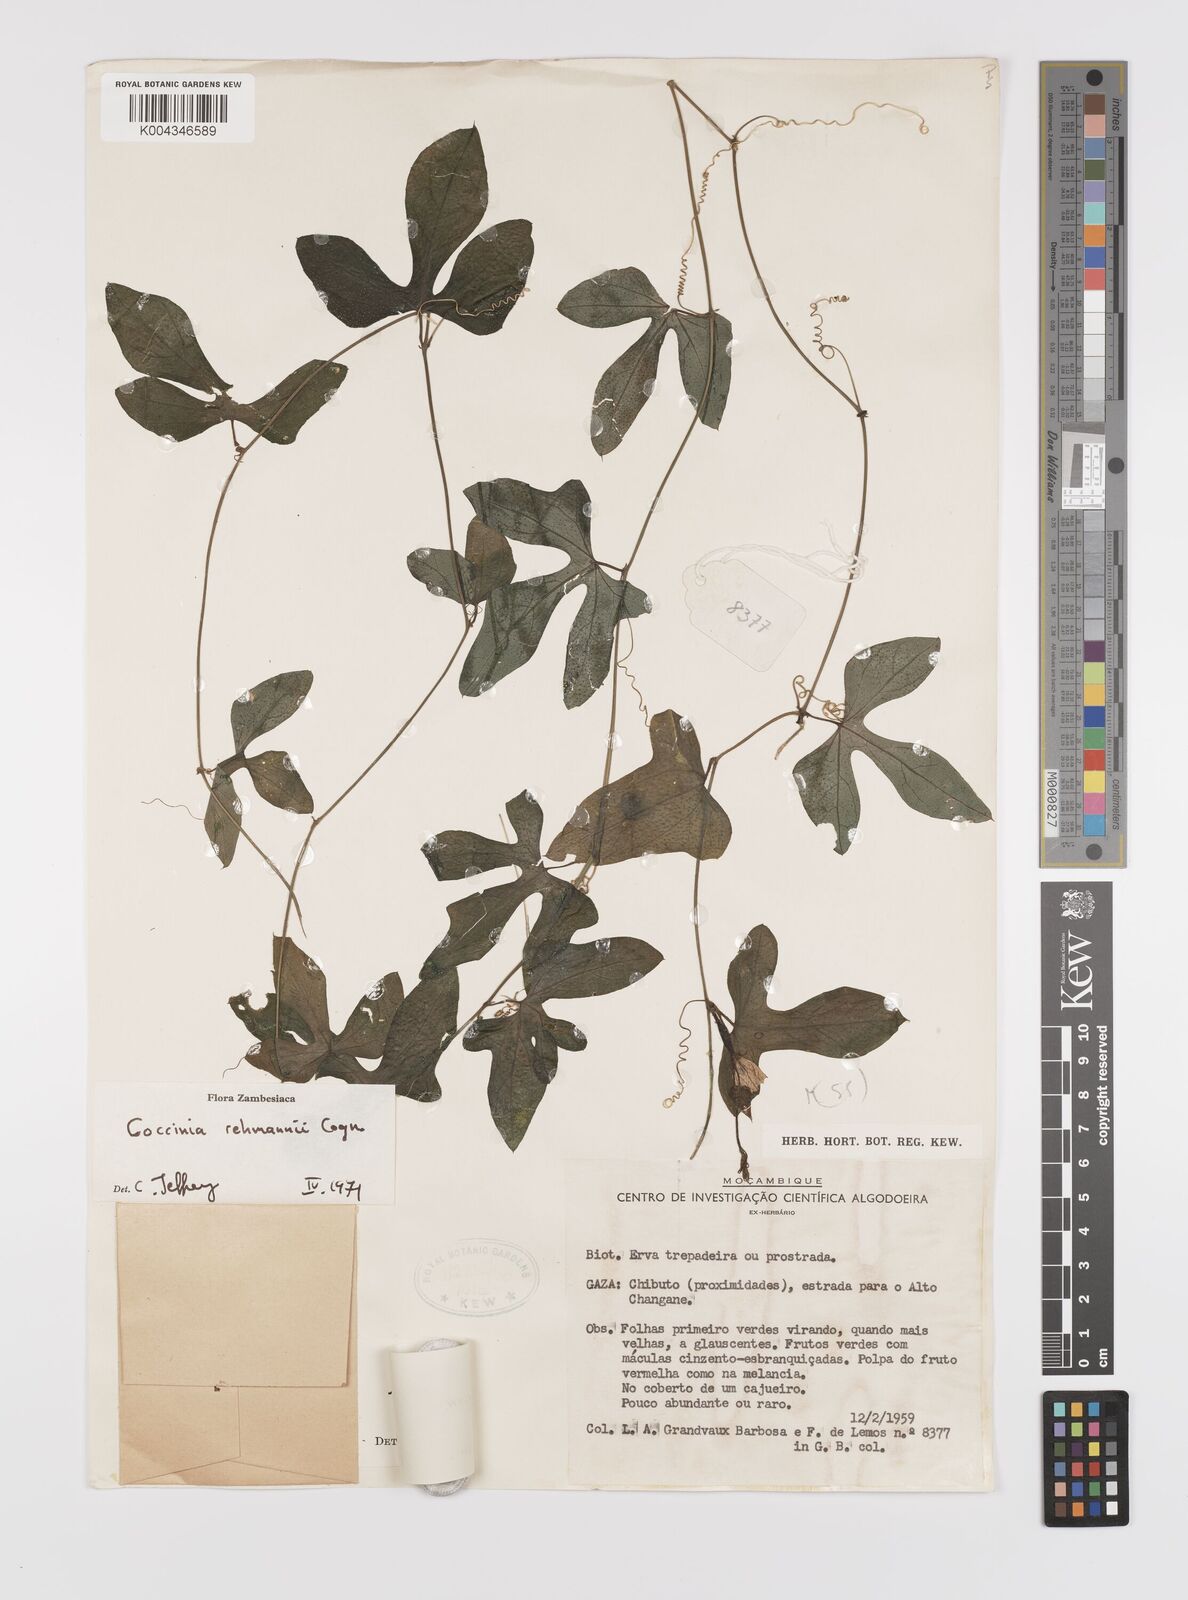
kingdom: Plantae
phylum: Tracheophyta
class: Magnoliopsida
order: Cucurbitales
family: Cucurbitaceae
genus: Coccinia
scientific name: Coccinia rehmannii
